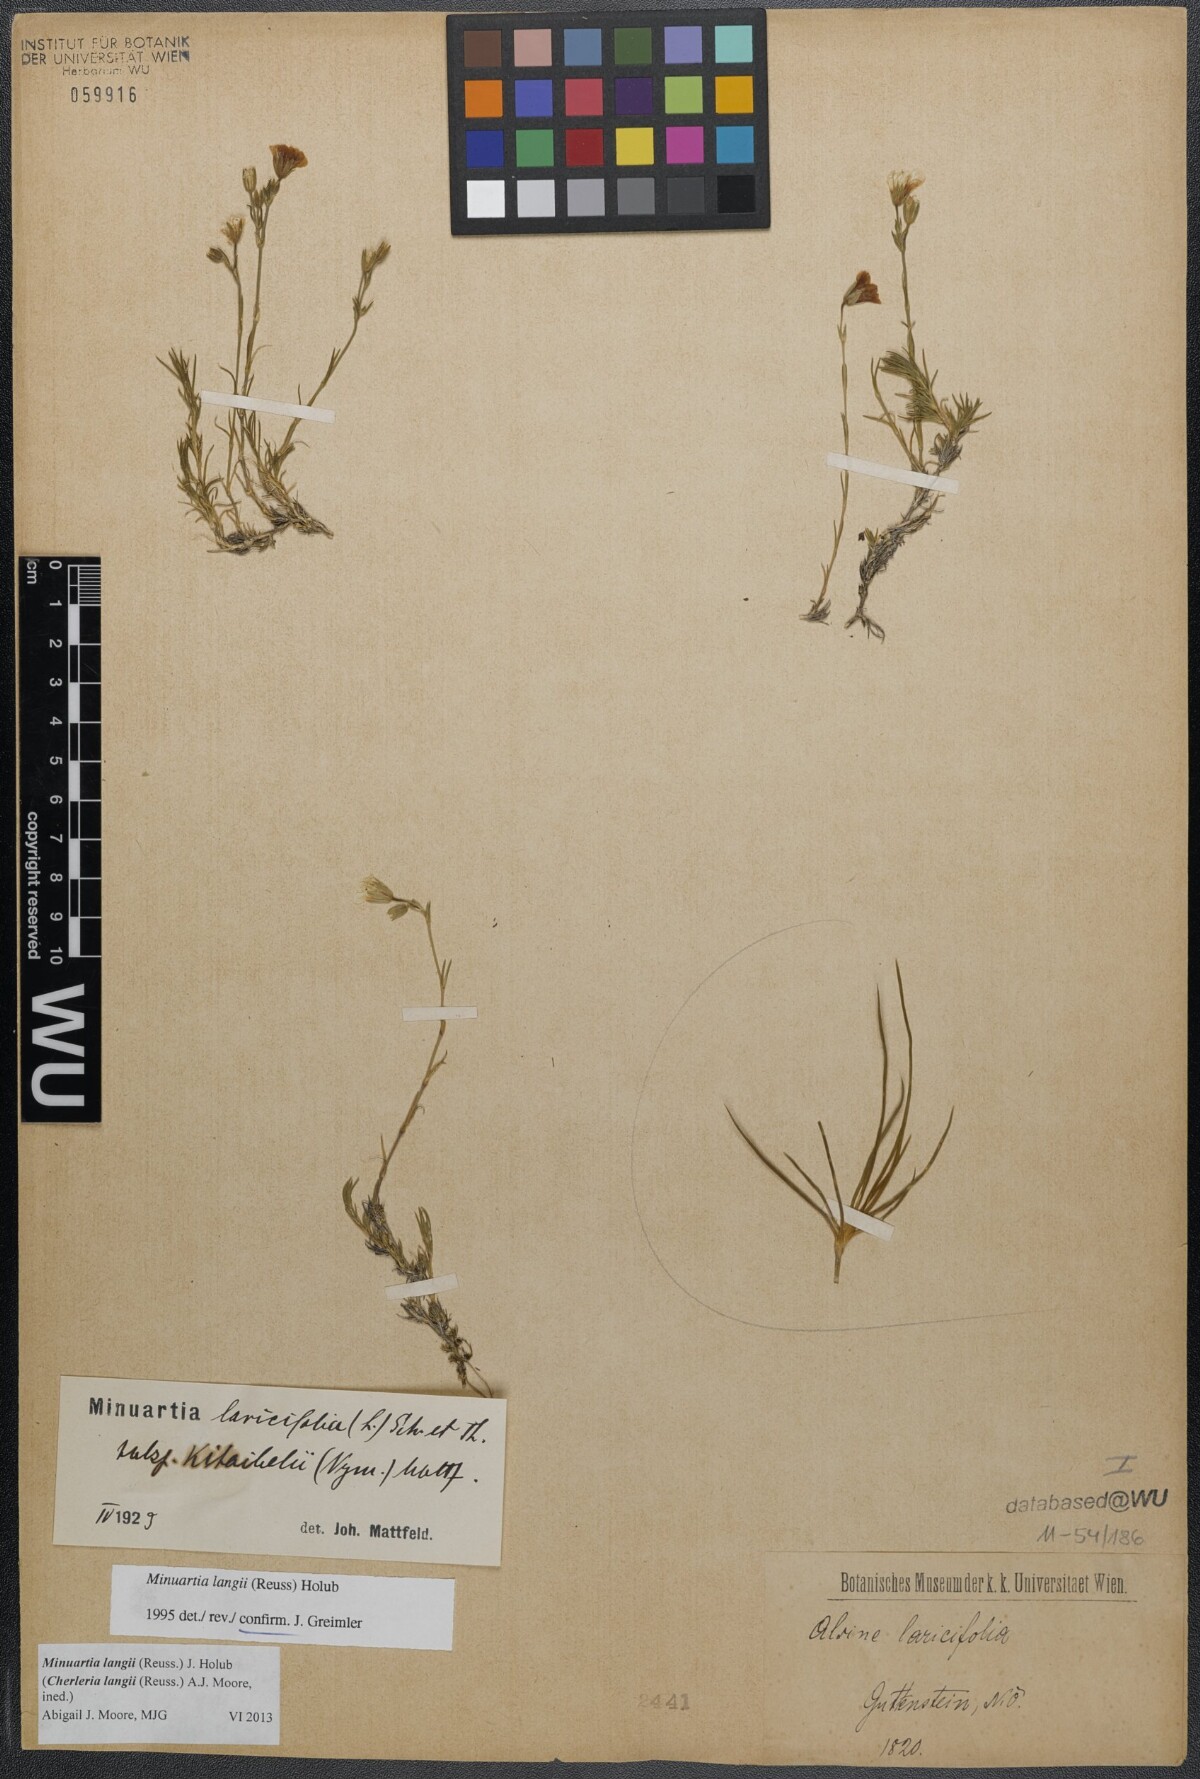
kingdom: Plantae
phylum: Tracheophyta
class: Magnoliopsida
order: Caryophyllales
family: Caryophyllaceae
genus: Cherleria
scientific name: Cherleria langii
